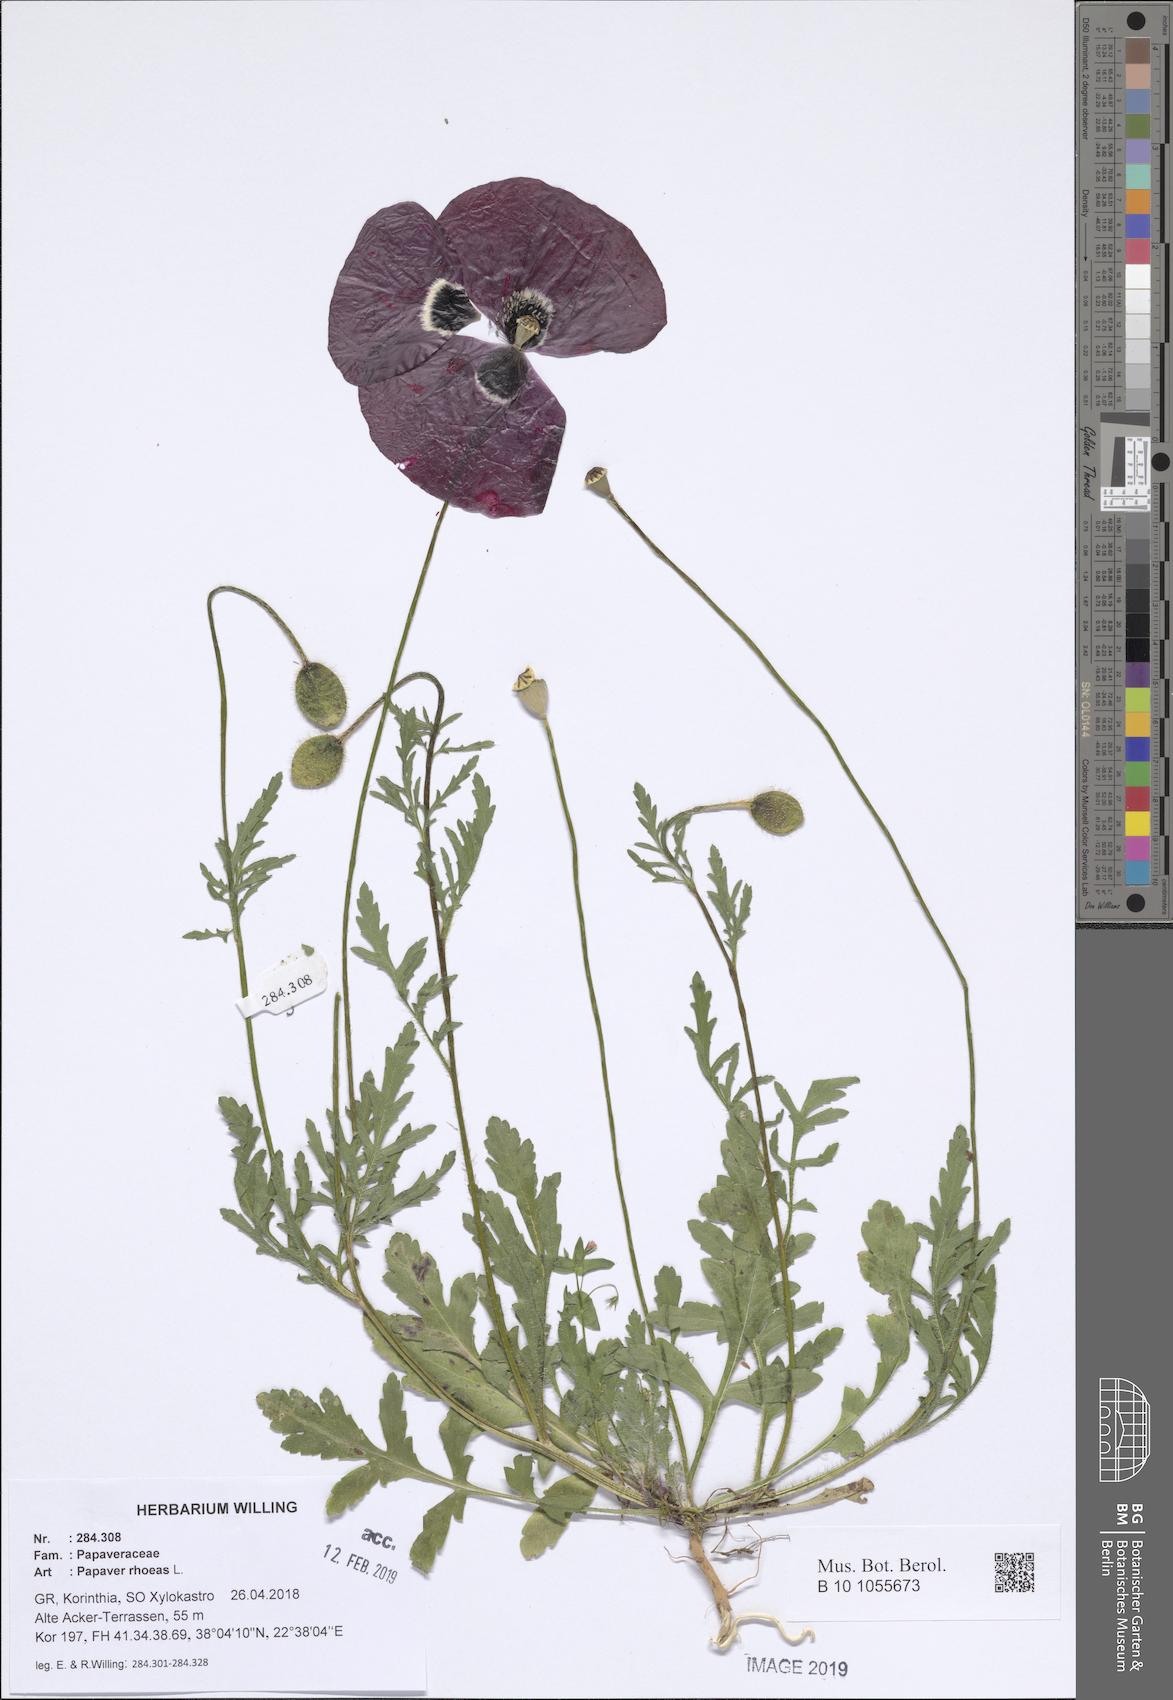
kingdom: Plantae
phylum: Tracheophyta
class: Magnoliopsida
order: Ranunculales
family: Papaveraceae
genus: Papaver
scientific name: Papaver rhoeas
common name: Corn poppy
